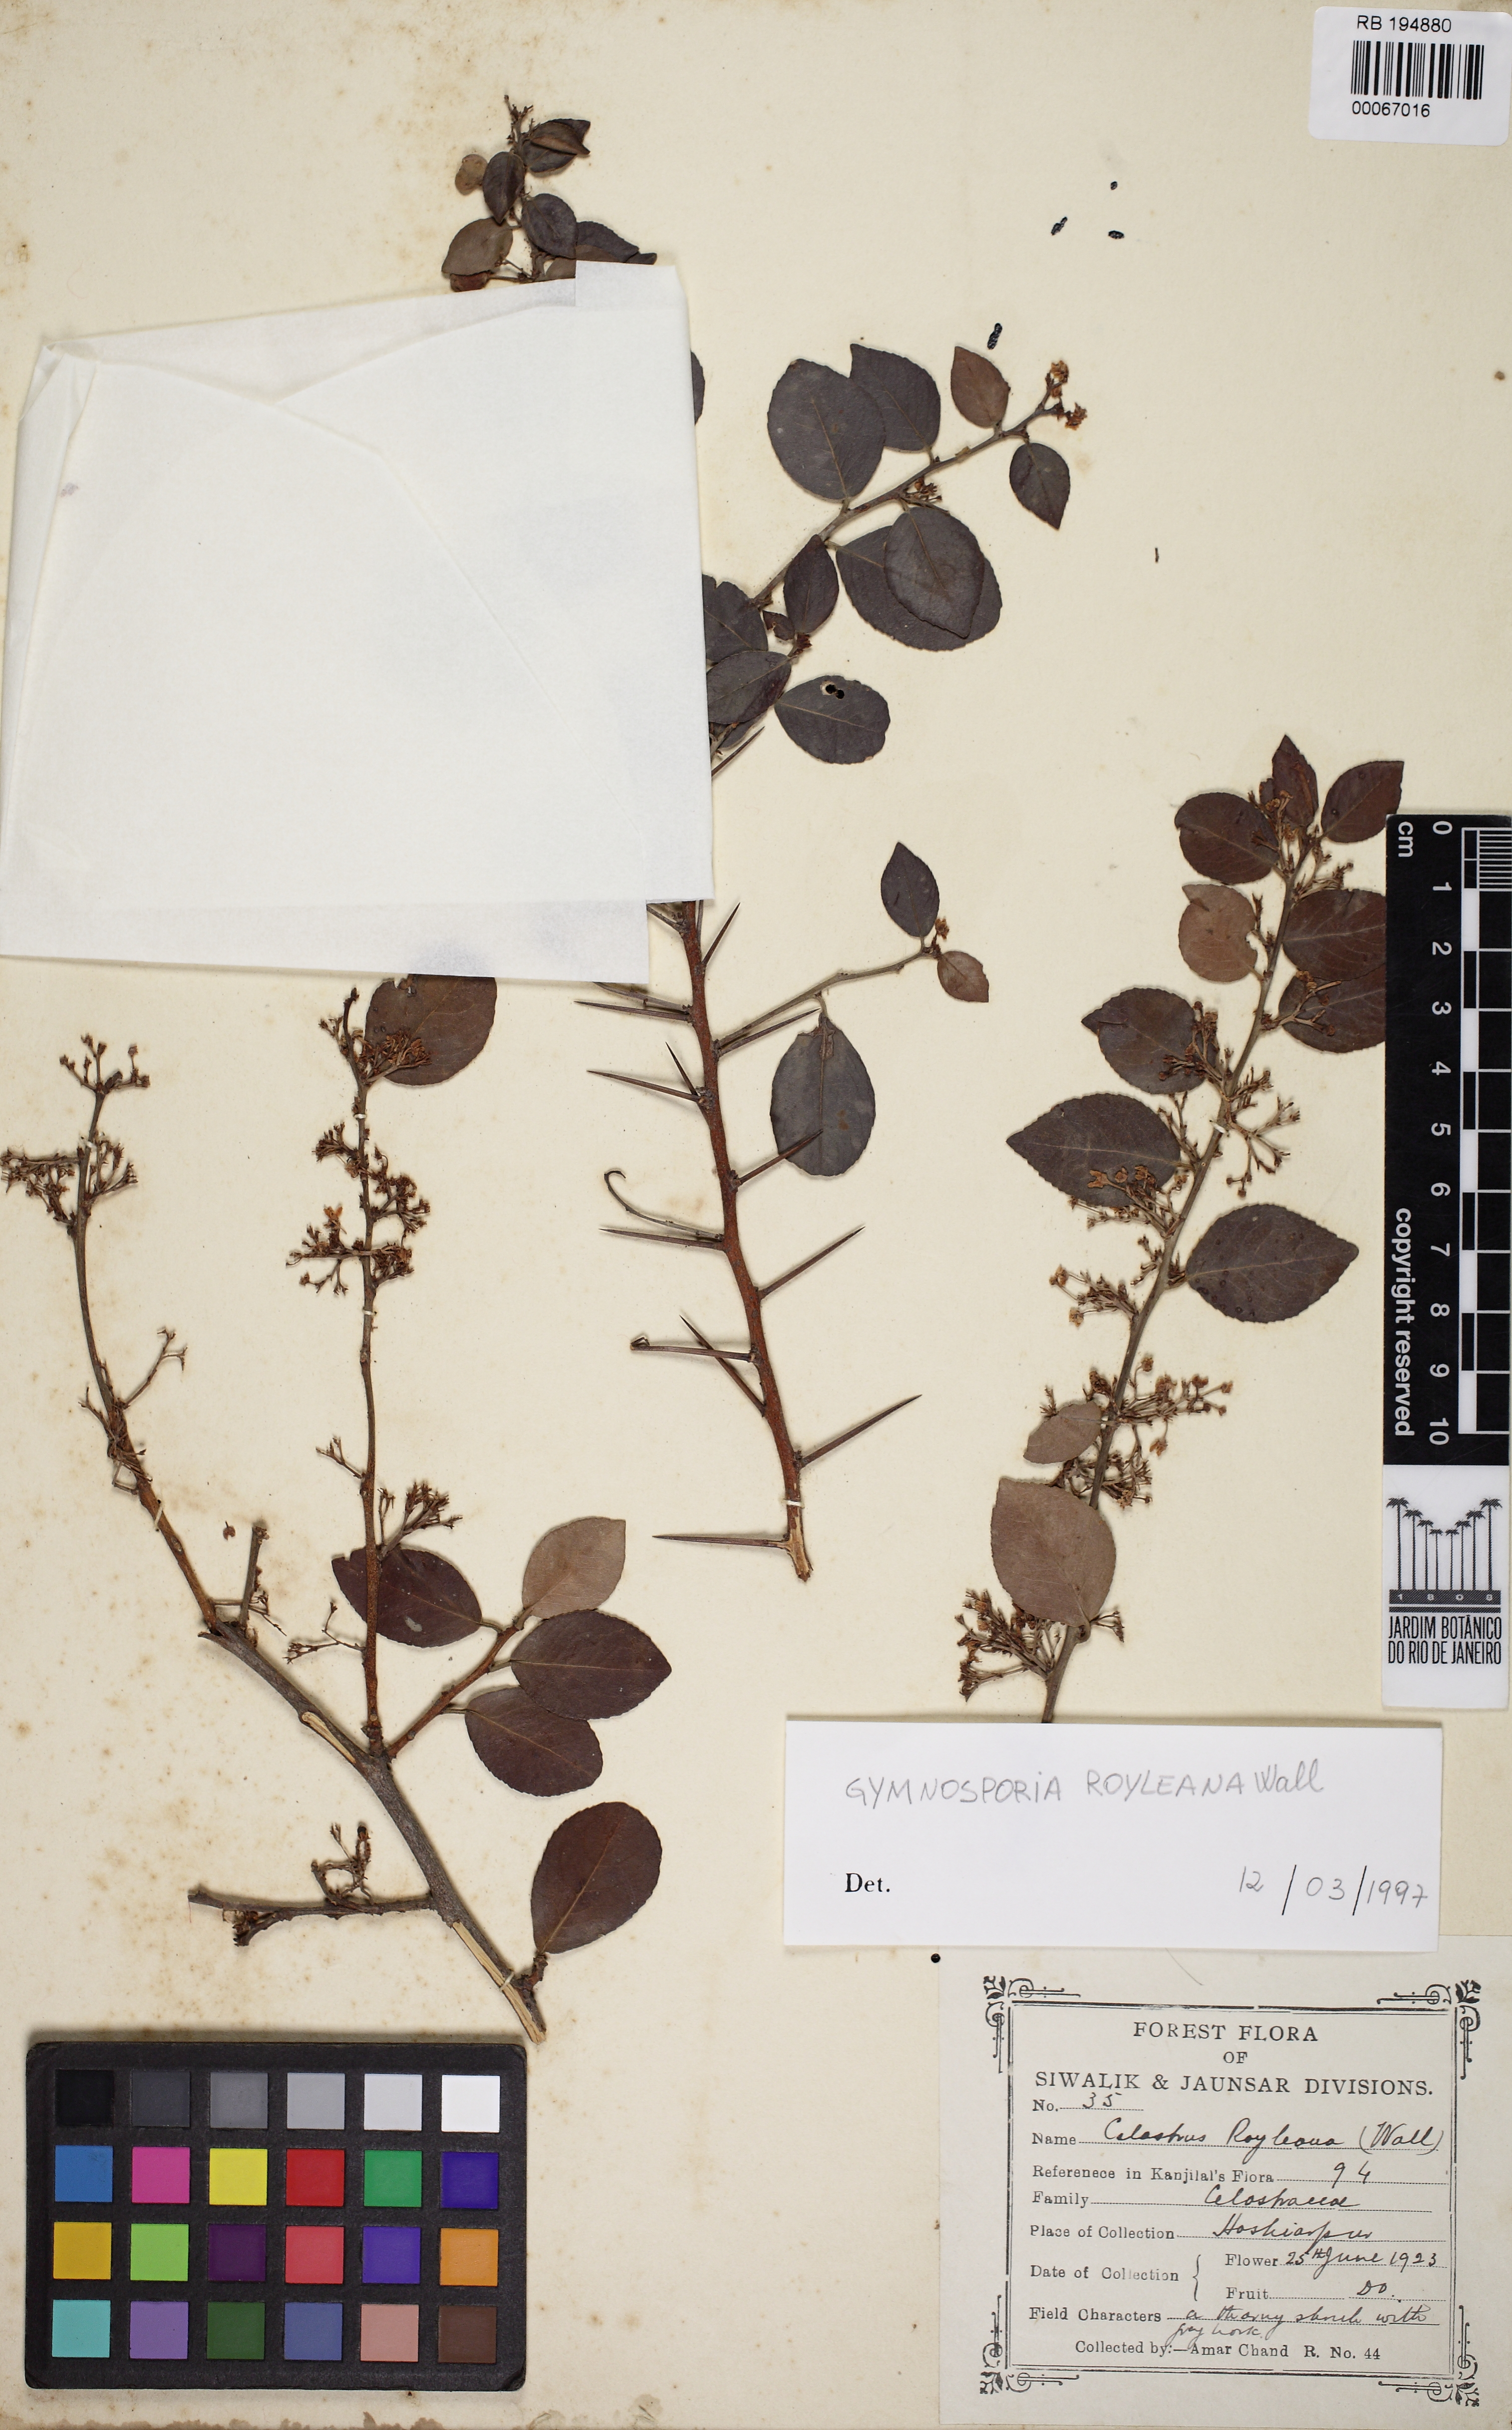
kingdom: Plantae
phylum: Tracheophyta
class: Magnoliopsida
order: Celastrales
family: Celastraceae
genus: Gymnosporia
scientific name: Gymnosporia royleana
